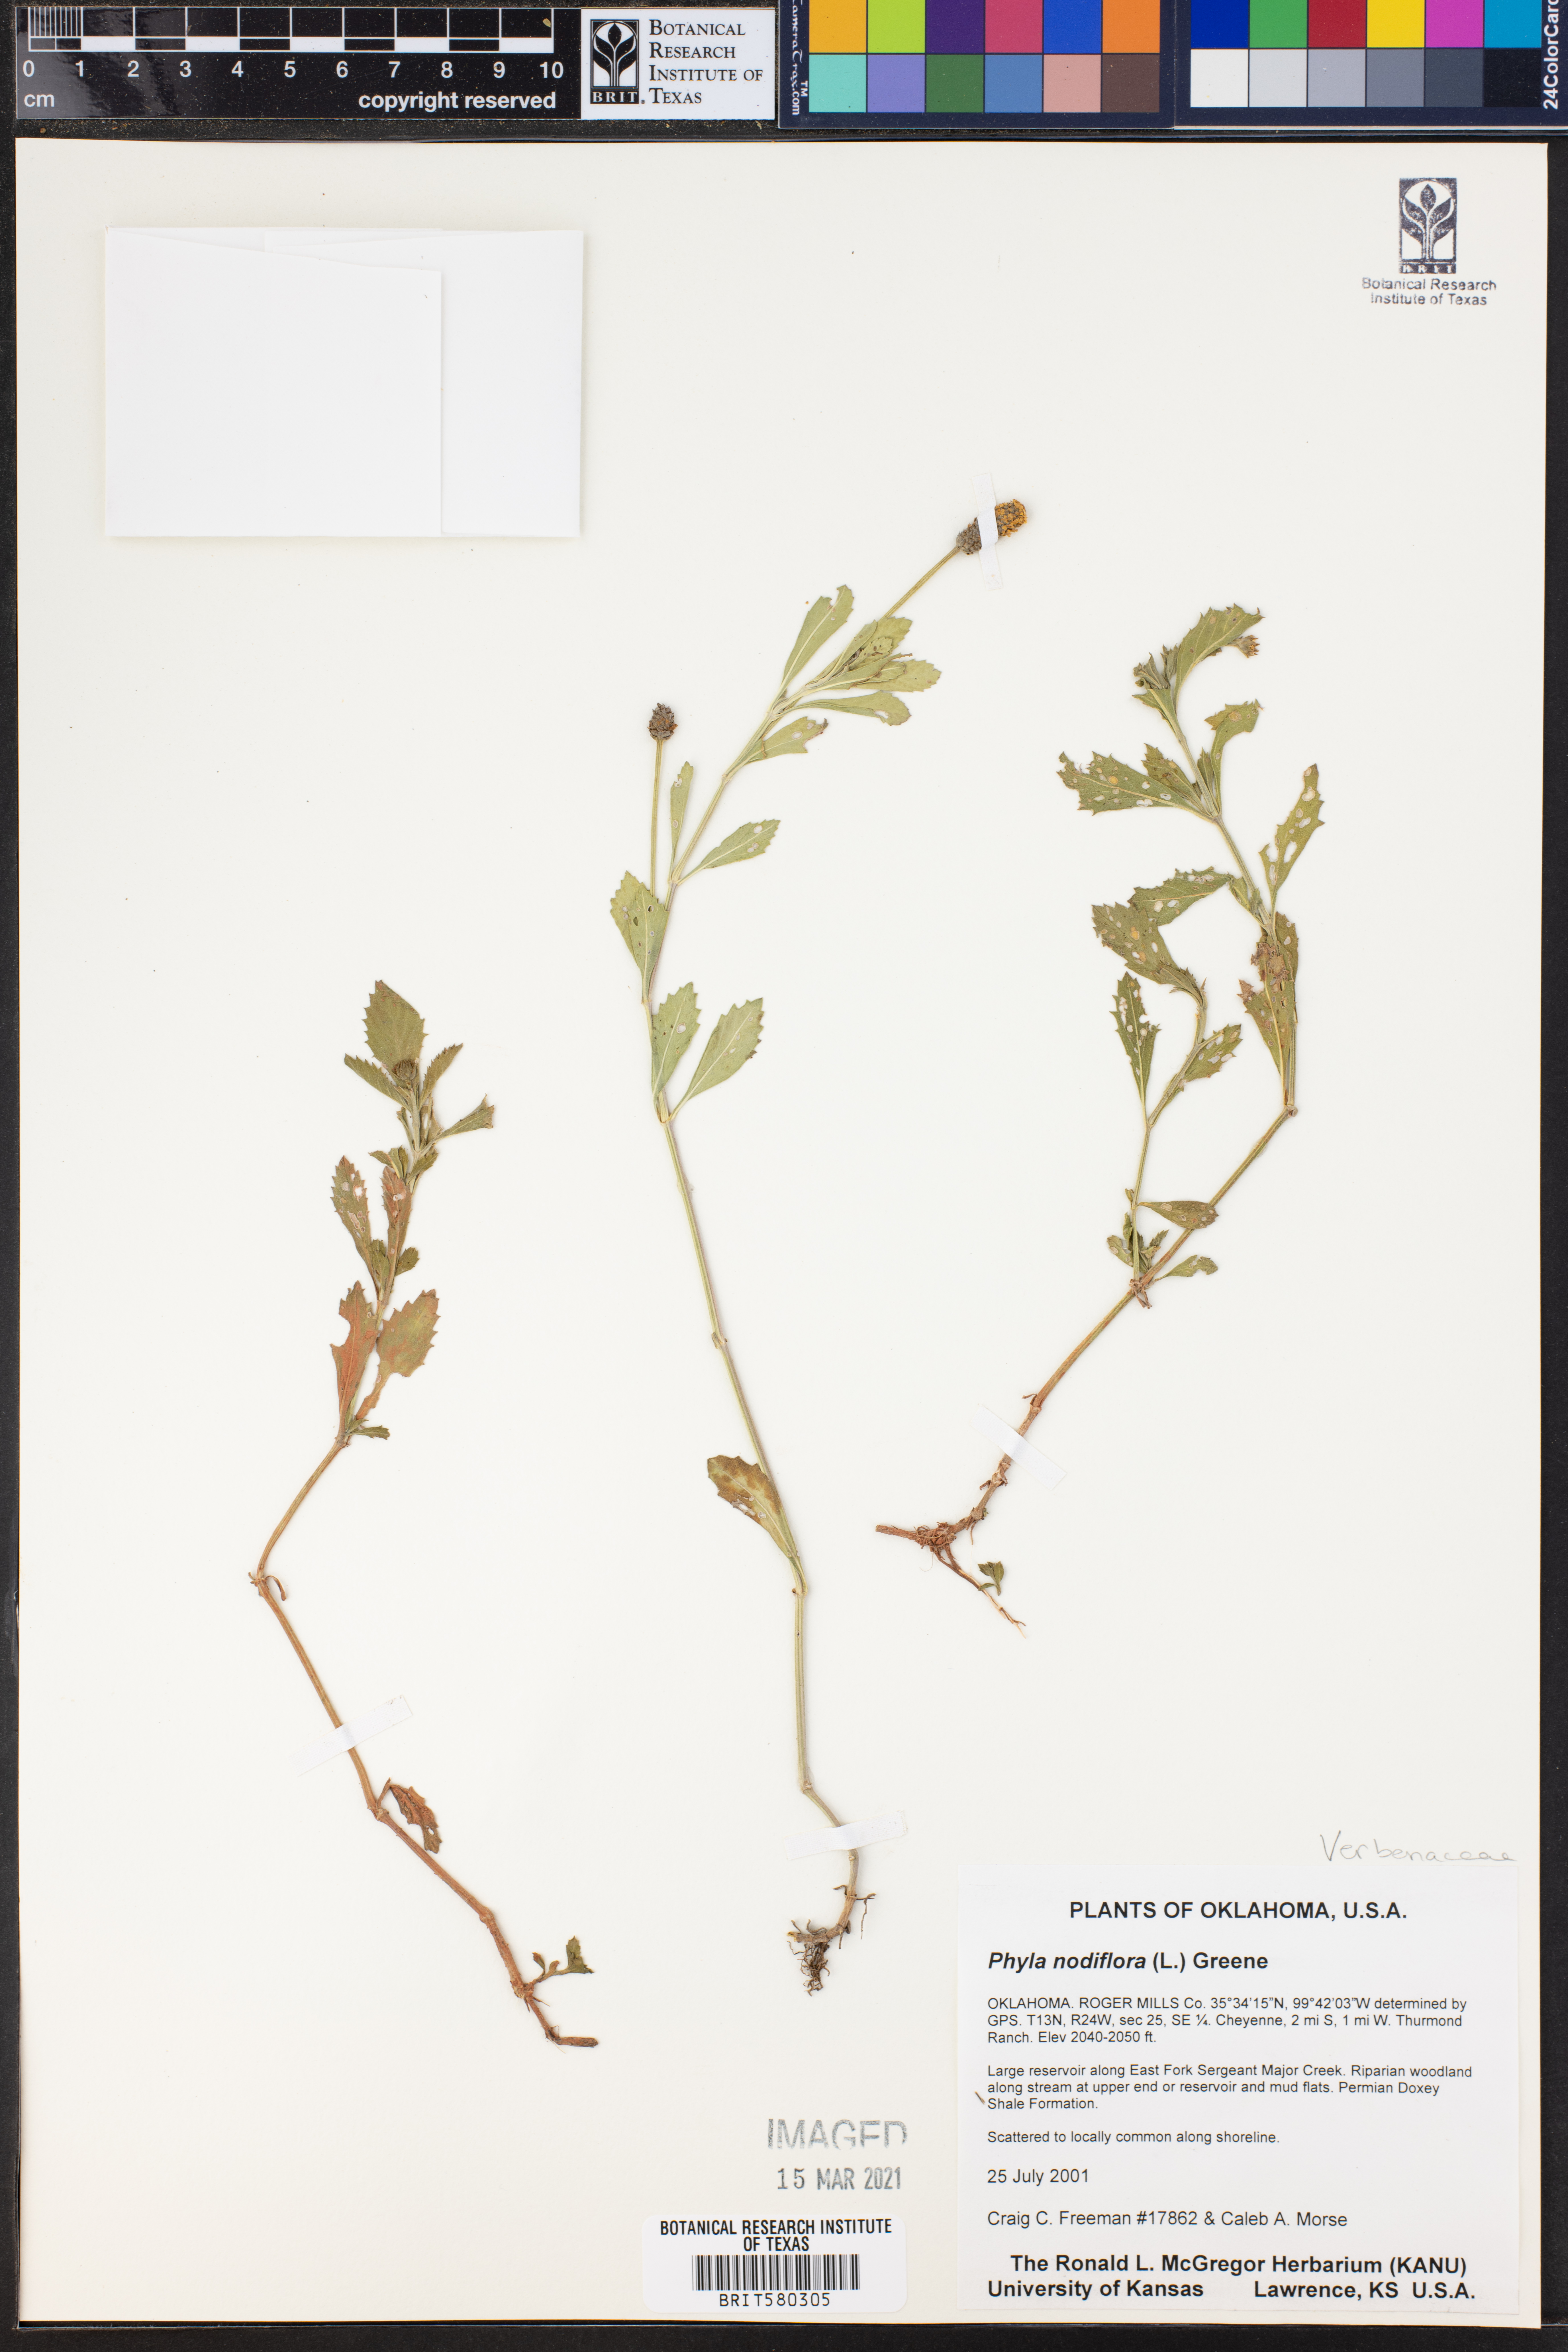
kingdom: Plantae
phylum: Tracheophyta
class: Magnoliopsida
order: Lamiales
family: Verbenaceae
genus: Phyla
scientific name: Phyla nodiflora
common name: Frogfruit
